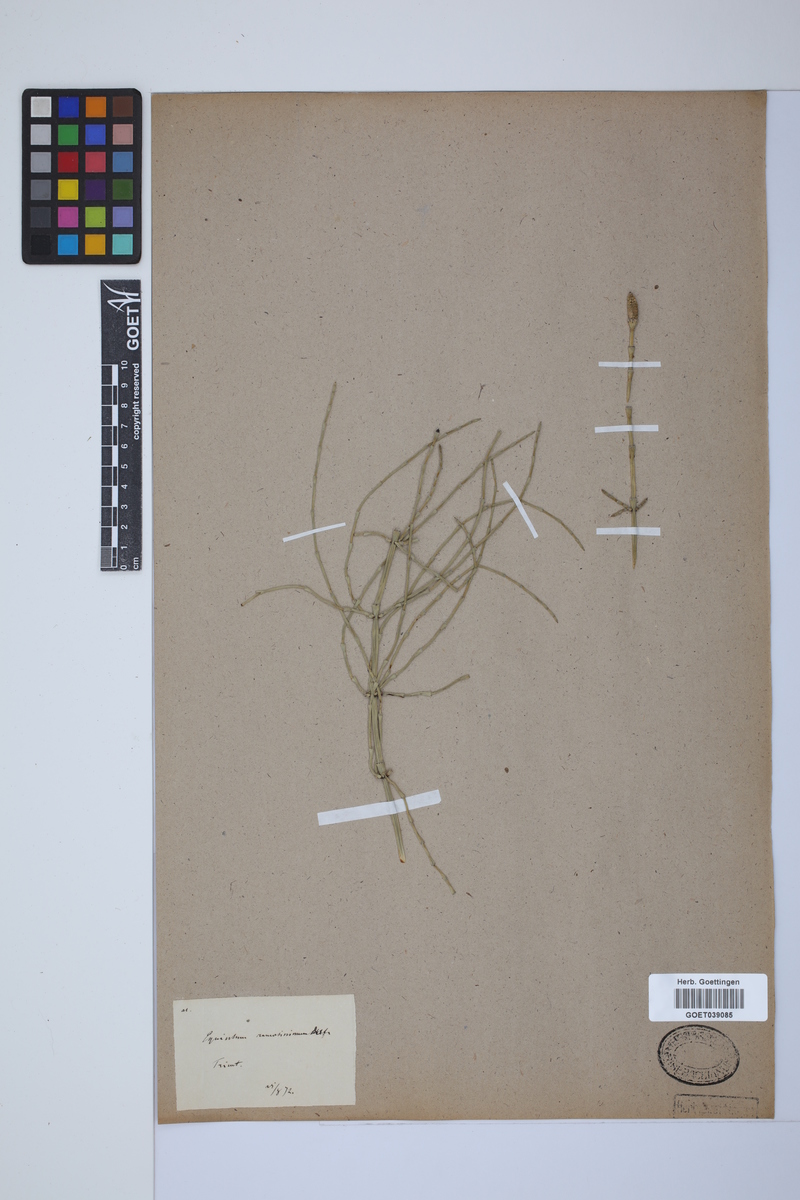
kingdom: Plantae
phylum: Tracheophyta
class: Polypodiopsida
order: Equisetales
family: Equisetaceae
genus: Equisetum
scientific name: Equisetum giganteum
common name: Giant horsetail
